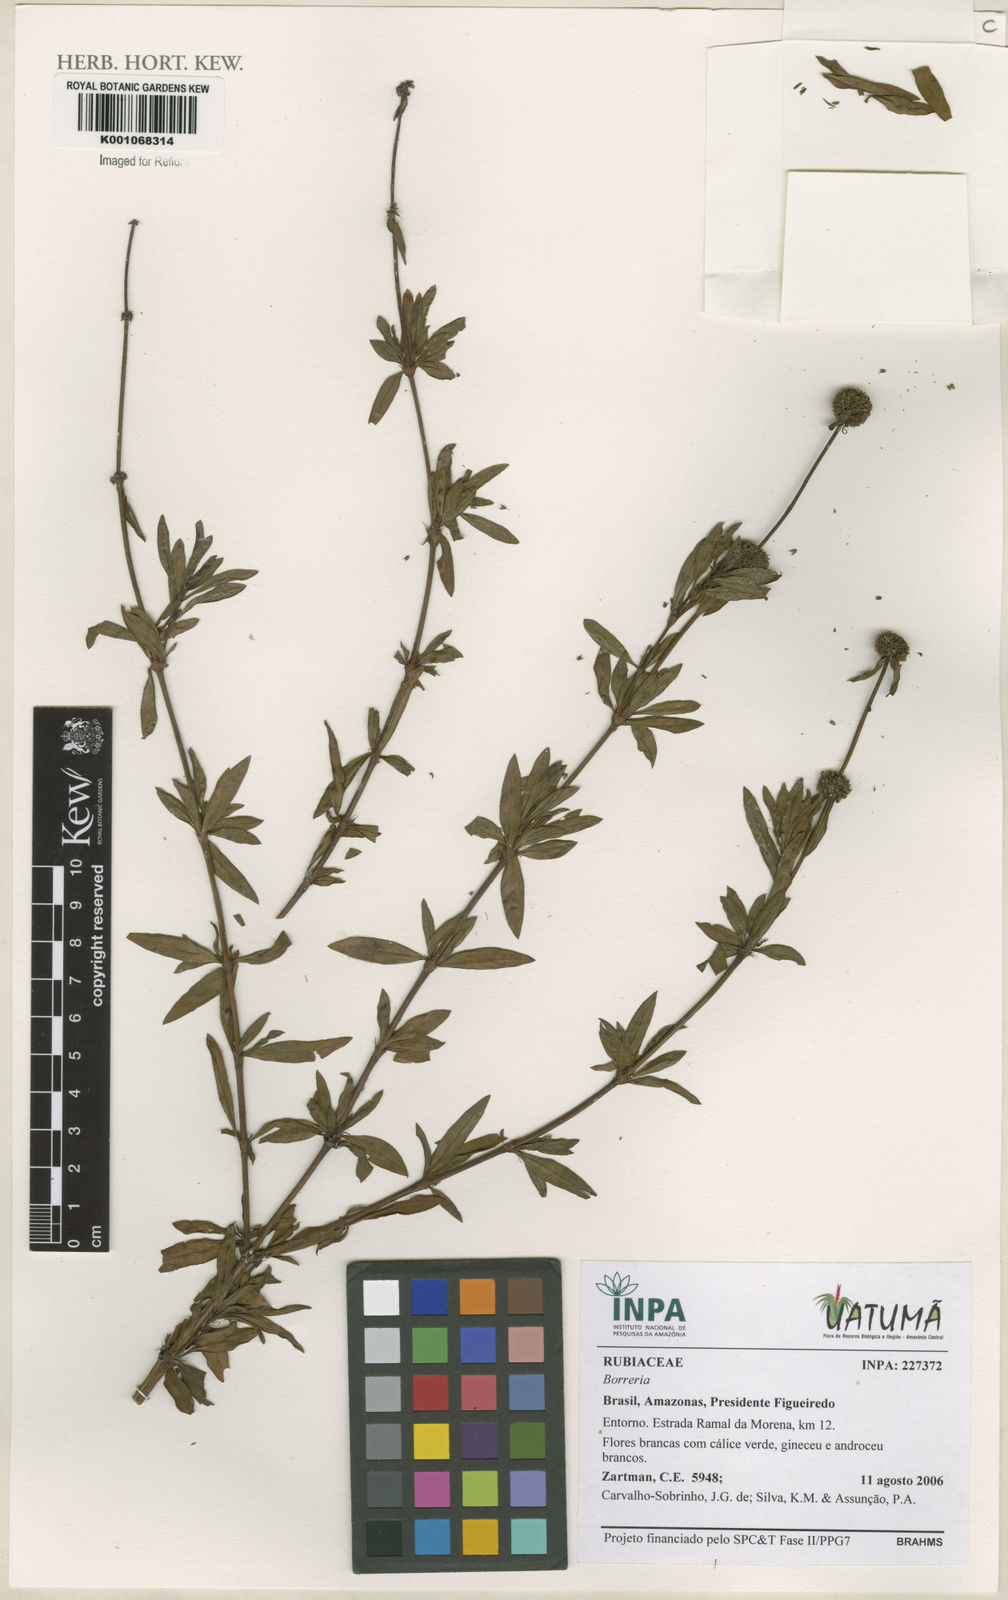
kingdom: Plantae
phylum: Tracheophyta
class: Magnoliopsida
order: Gentianales
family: Rubiaceae
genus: Spermacoce
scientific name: Spermacoce
